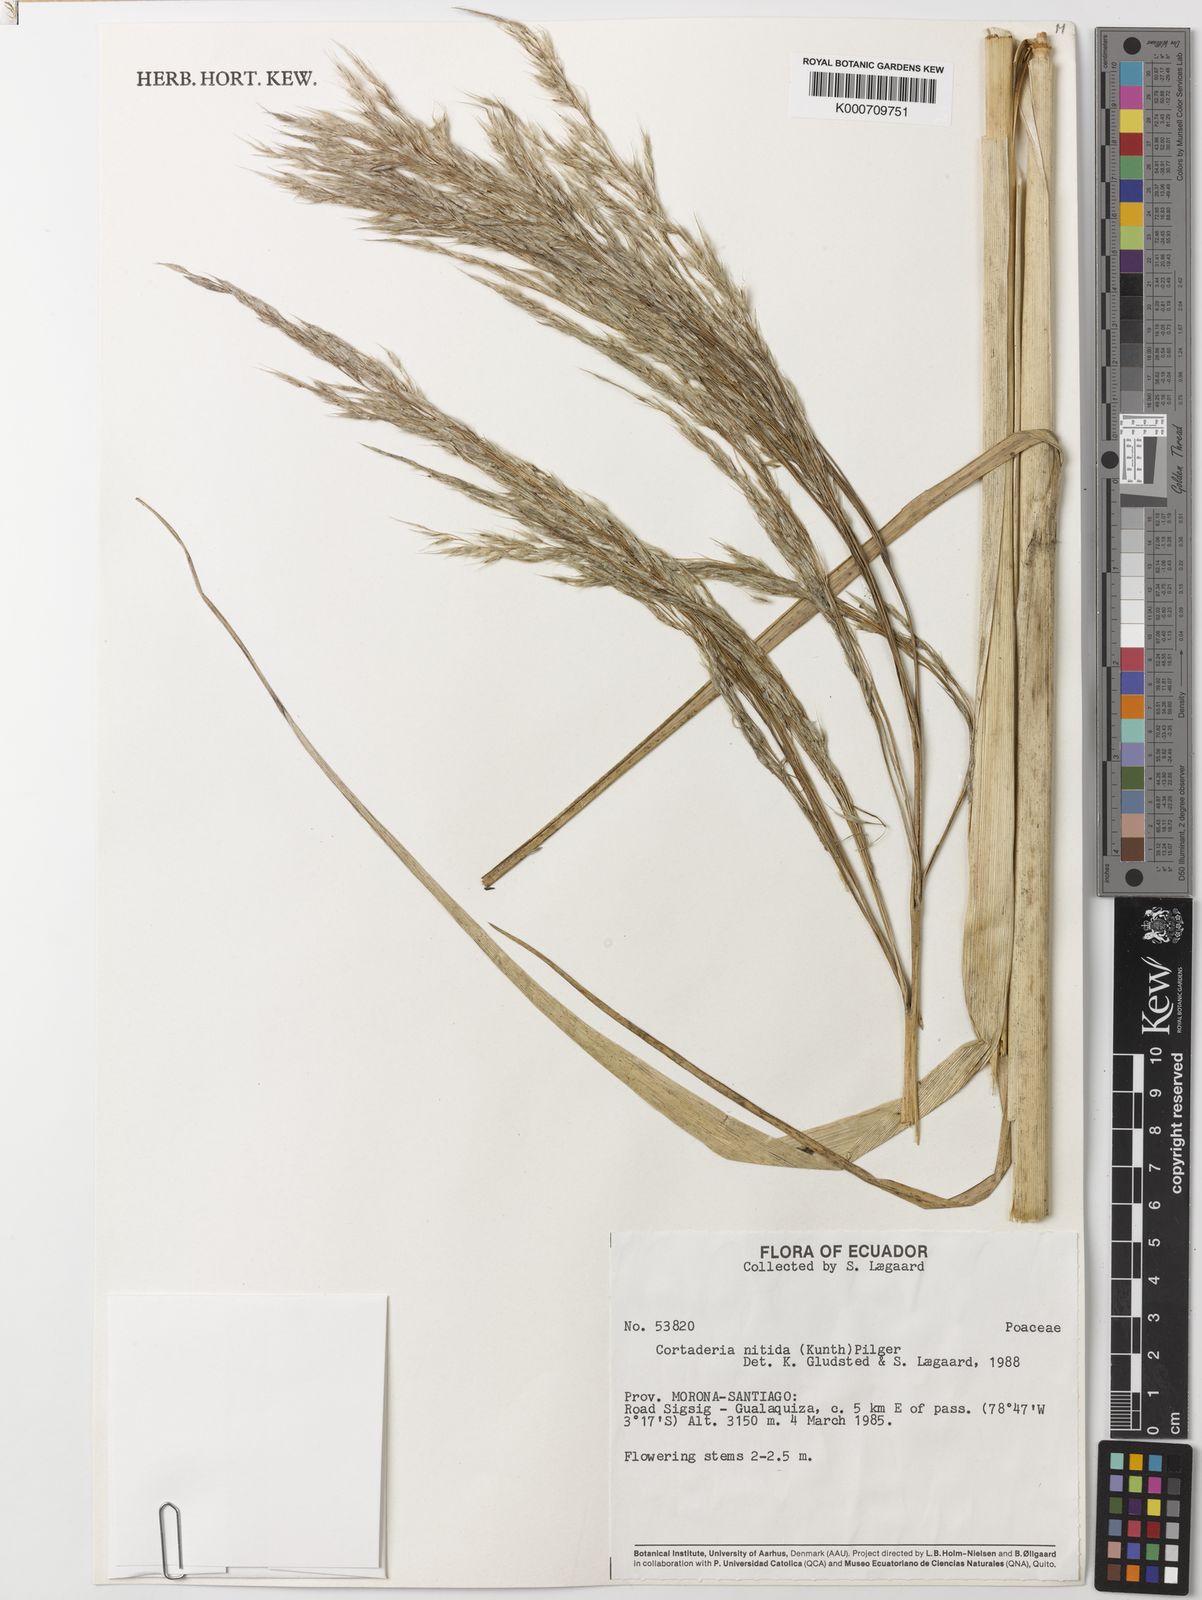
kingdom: Plantae
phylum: Tracheophyta
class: Liliopsida
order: Poales
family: Poaceae
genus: Cortaderia
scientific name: Cortaderia nitida
